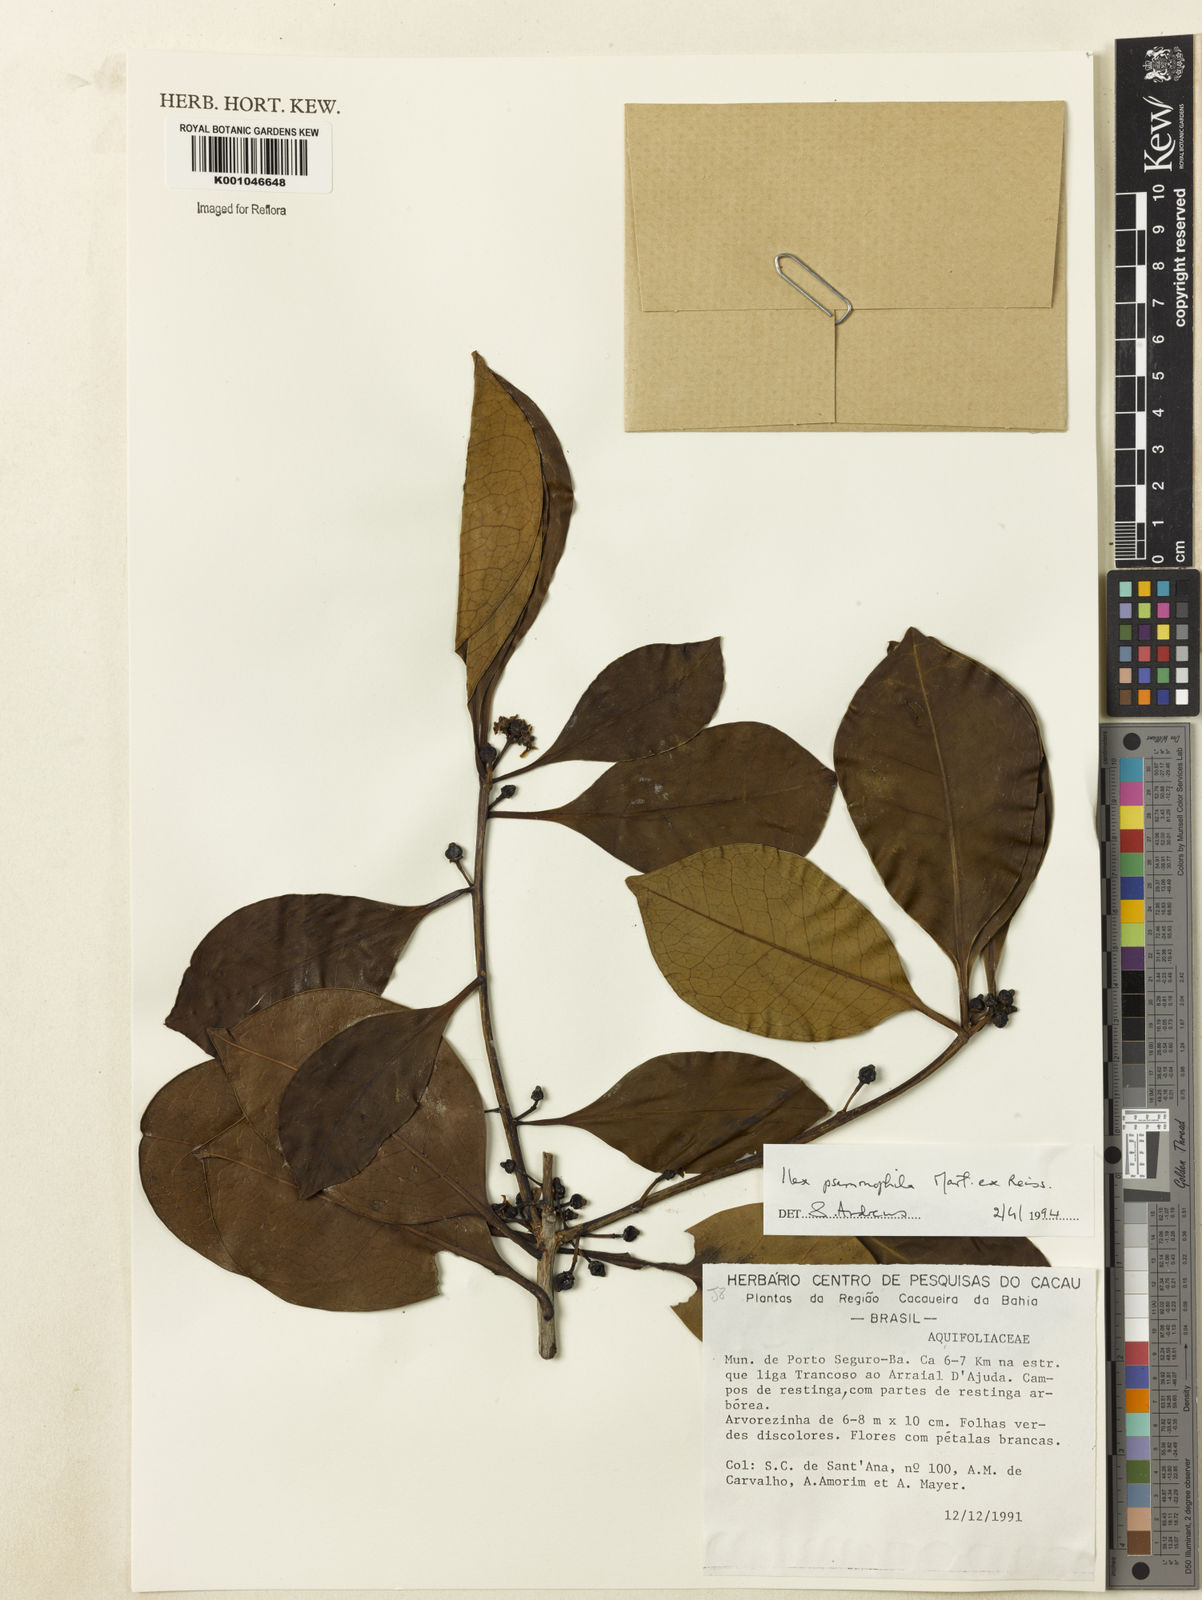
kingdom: Plantae
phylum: Tracheophyta
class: Magnoliopsida
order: Aquifoliales
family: Aquifoliaceae
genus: Ilex
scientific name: Ilex psammophila
